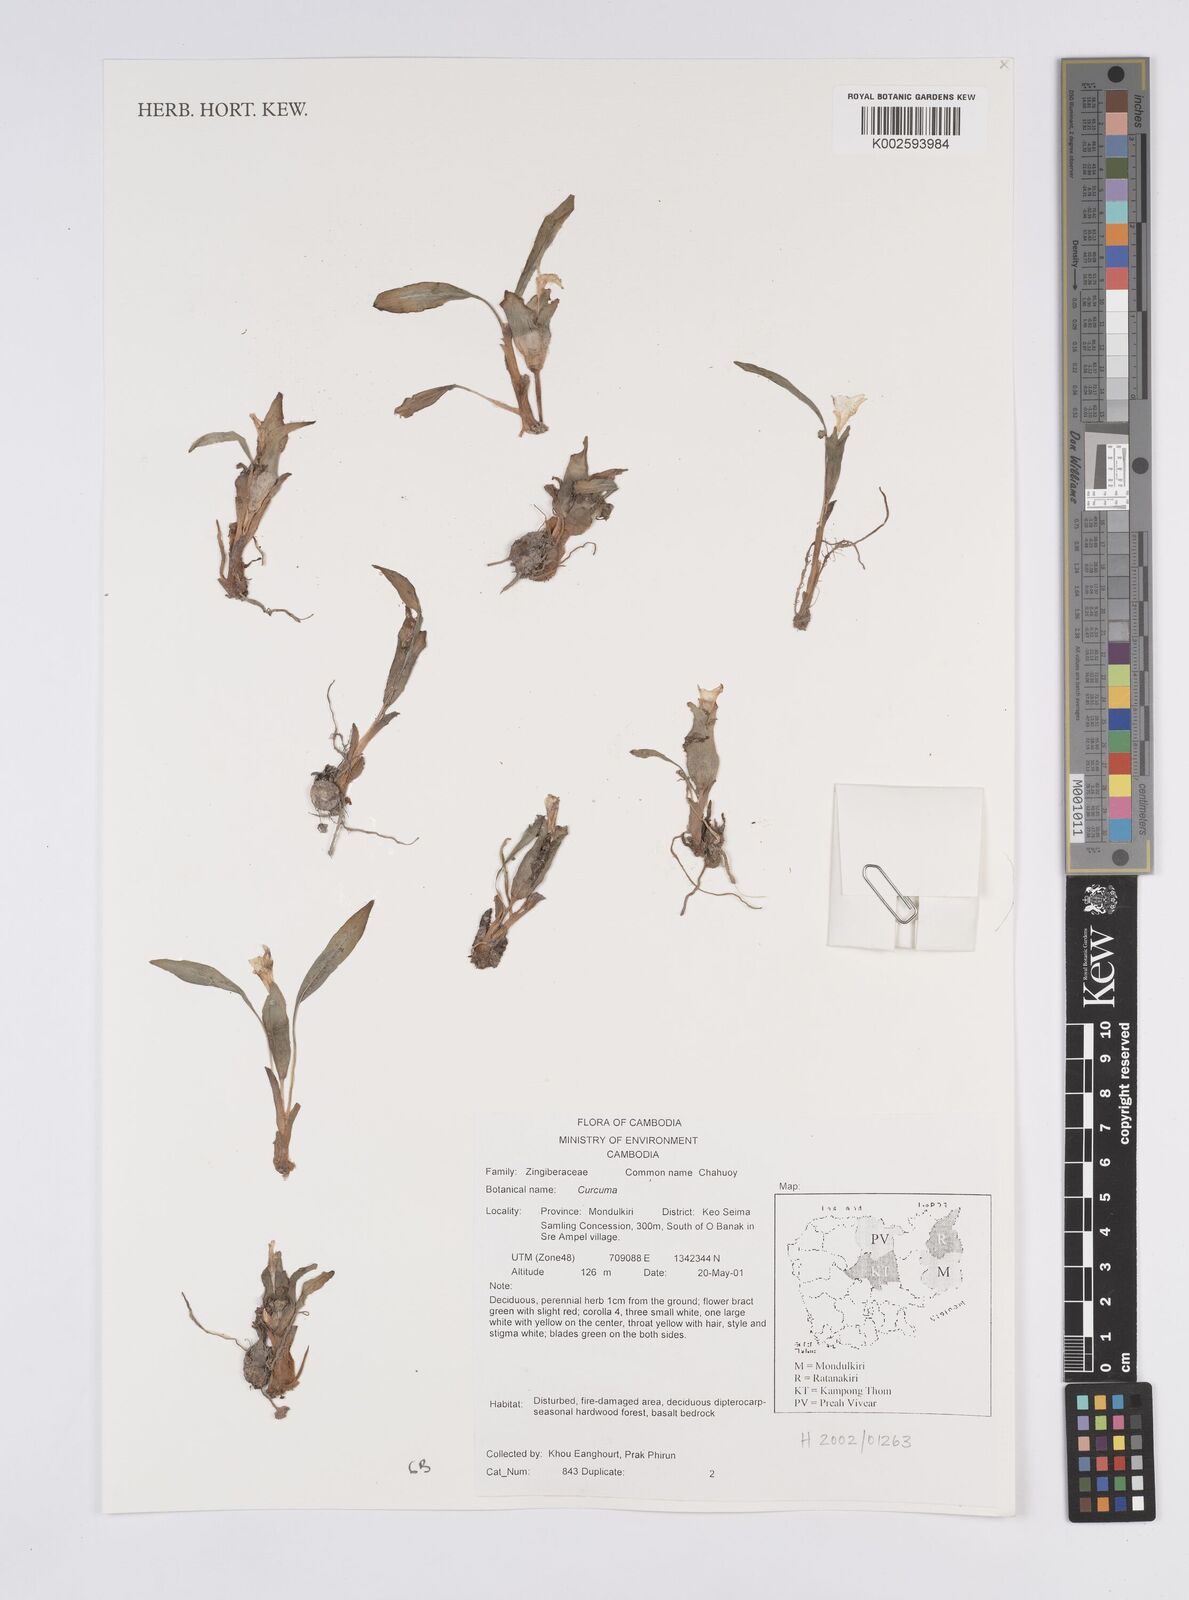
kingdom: Plantae
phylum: Tracheophyta
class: Liliopsida
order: Zingiberales
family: Zingiberaceae
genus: Curcuma
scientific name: Curcuma
